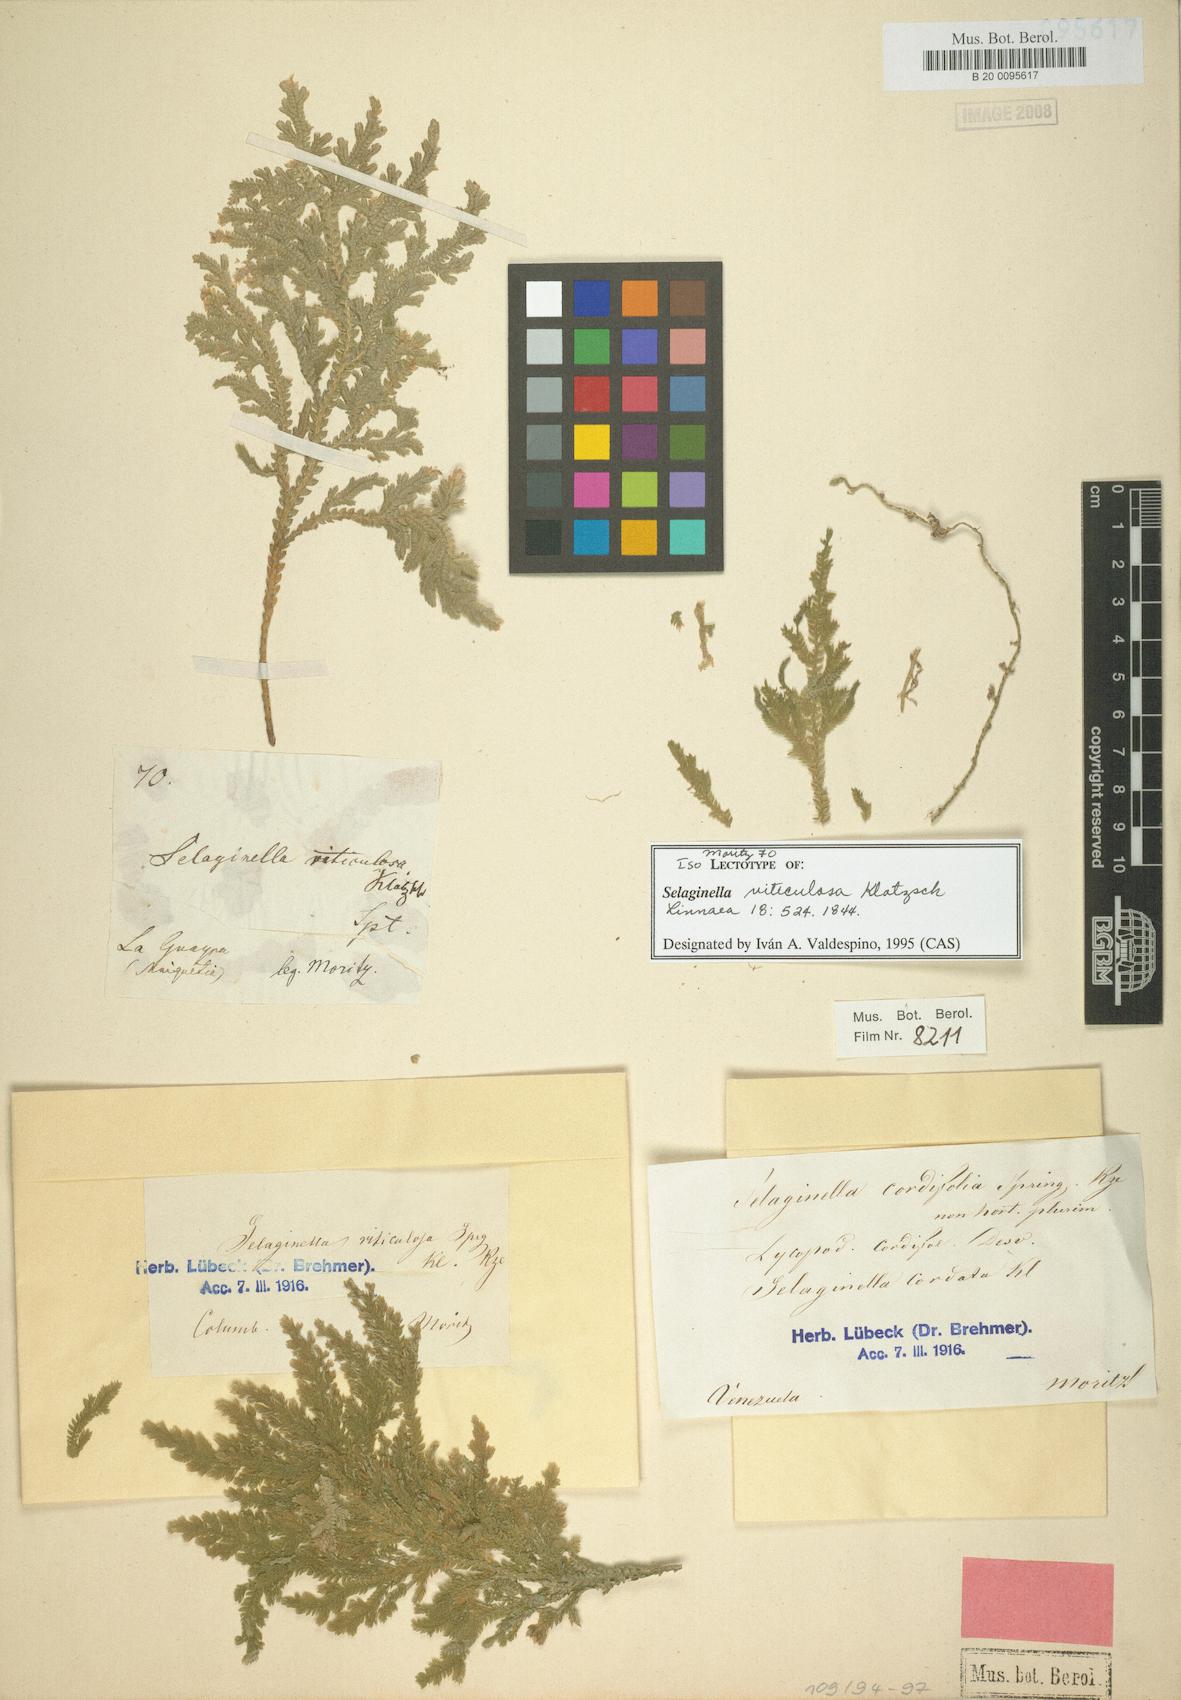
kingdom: Plantae
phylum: Tracheophyta
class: Lycopodiopsida
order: Selaginellales
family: Selaginellaceae
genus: Selaginella
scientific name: Selaginella viticulosa
